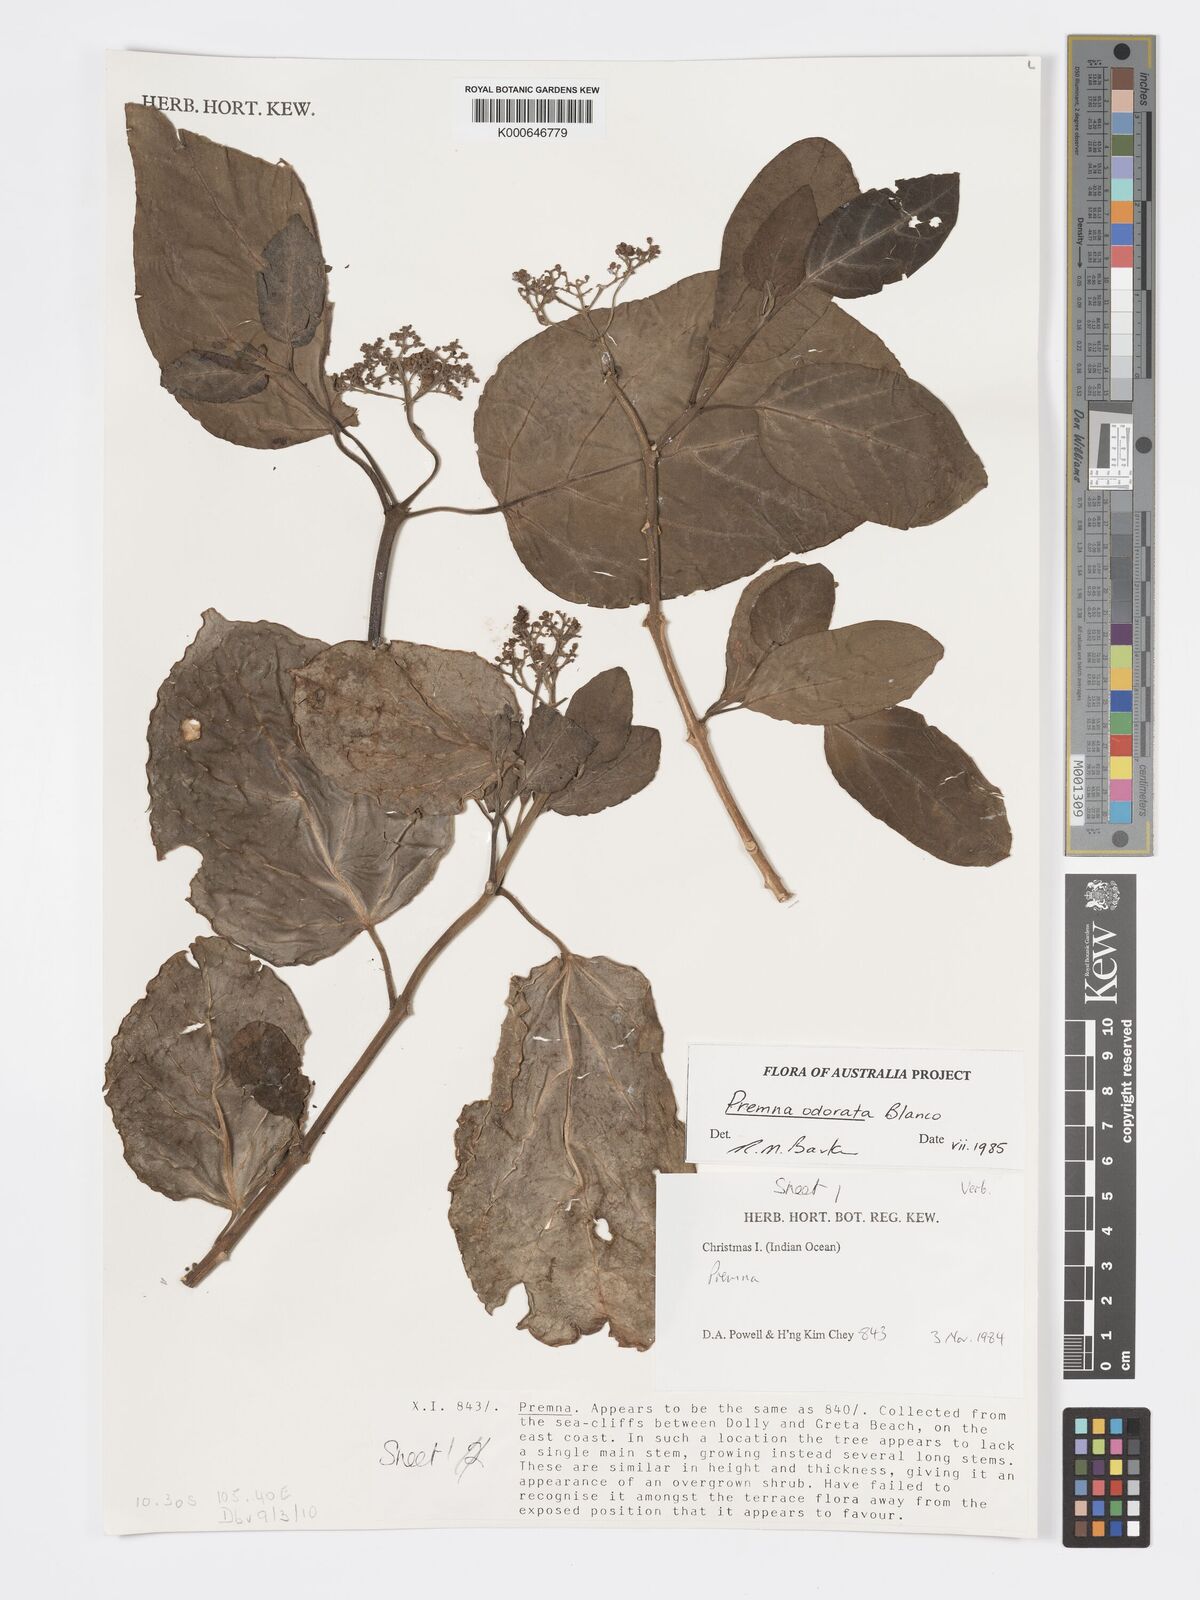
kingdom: Plantae
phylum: Tracheophyta
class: Magnoliopsida
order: Lamiales
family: Lamiaceae
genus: Premna
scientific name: Premna odorata
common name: Fragrant premna
